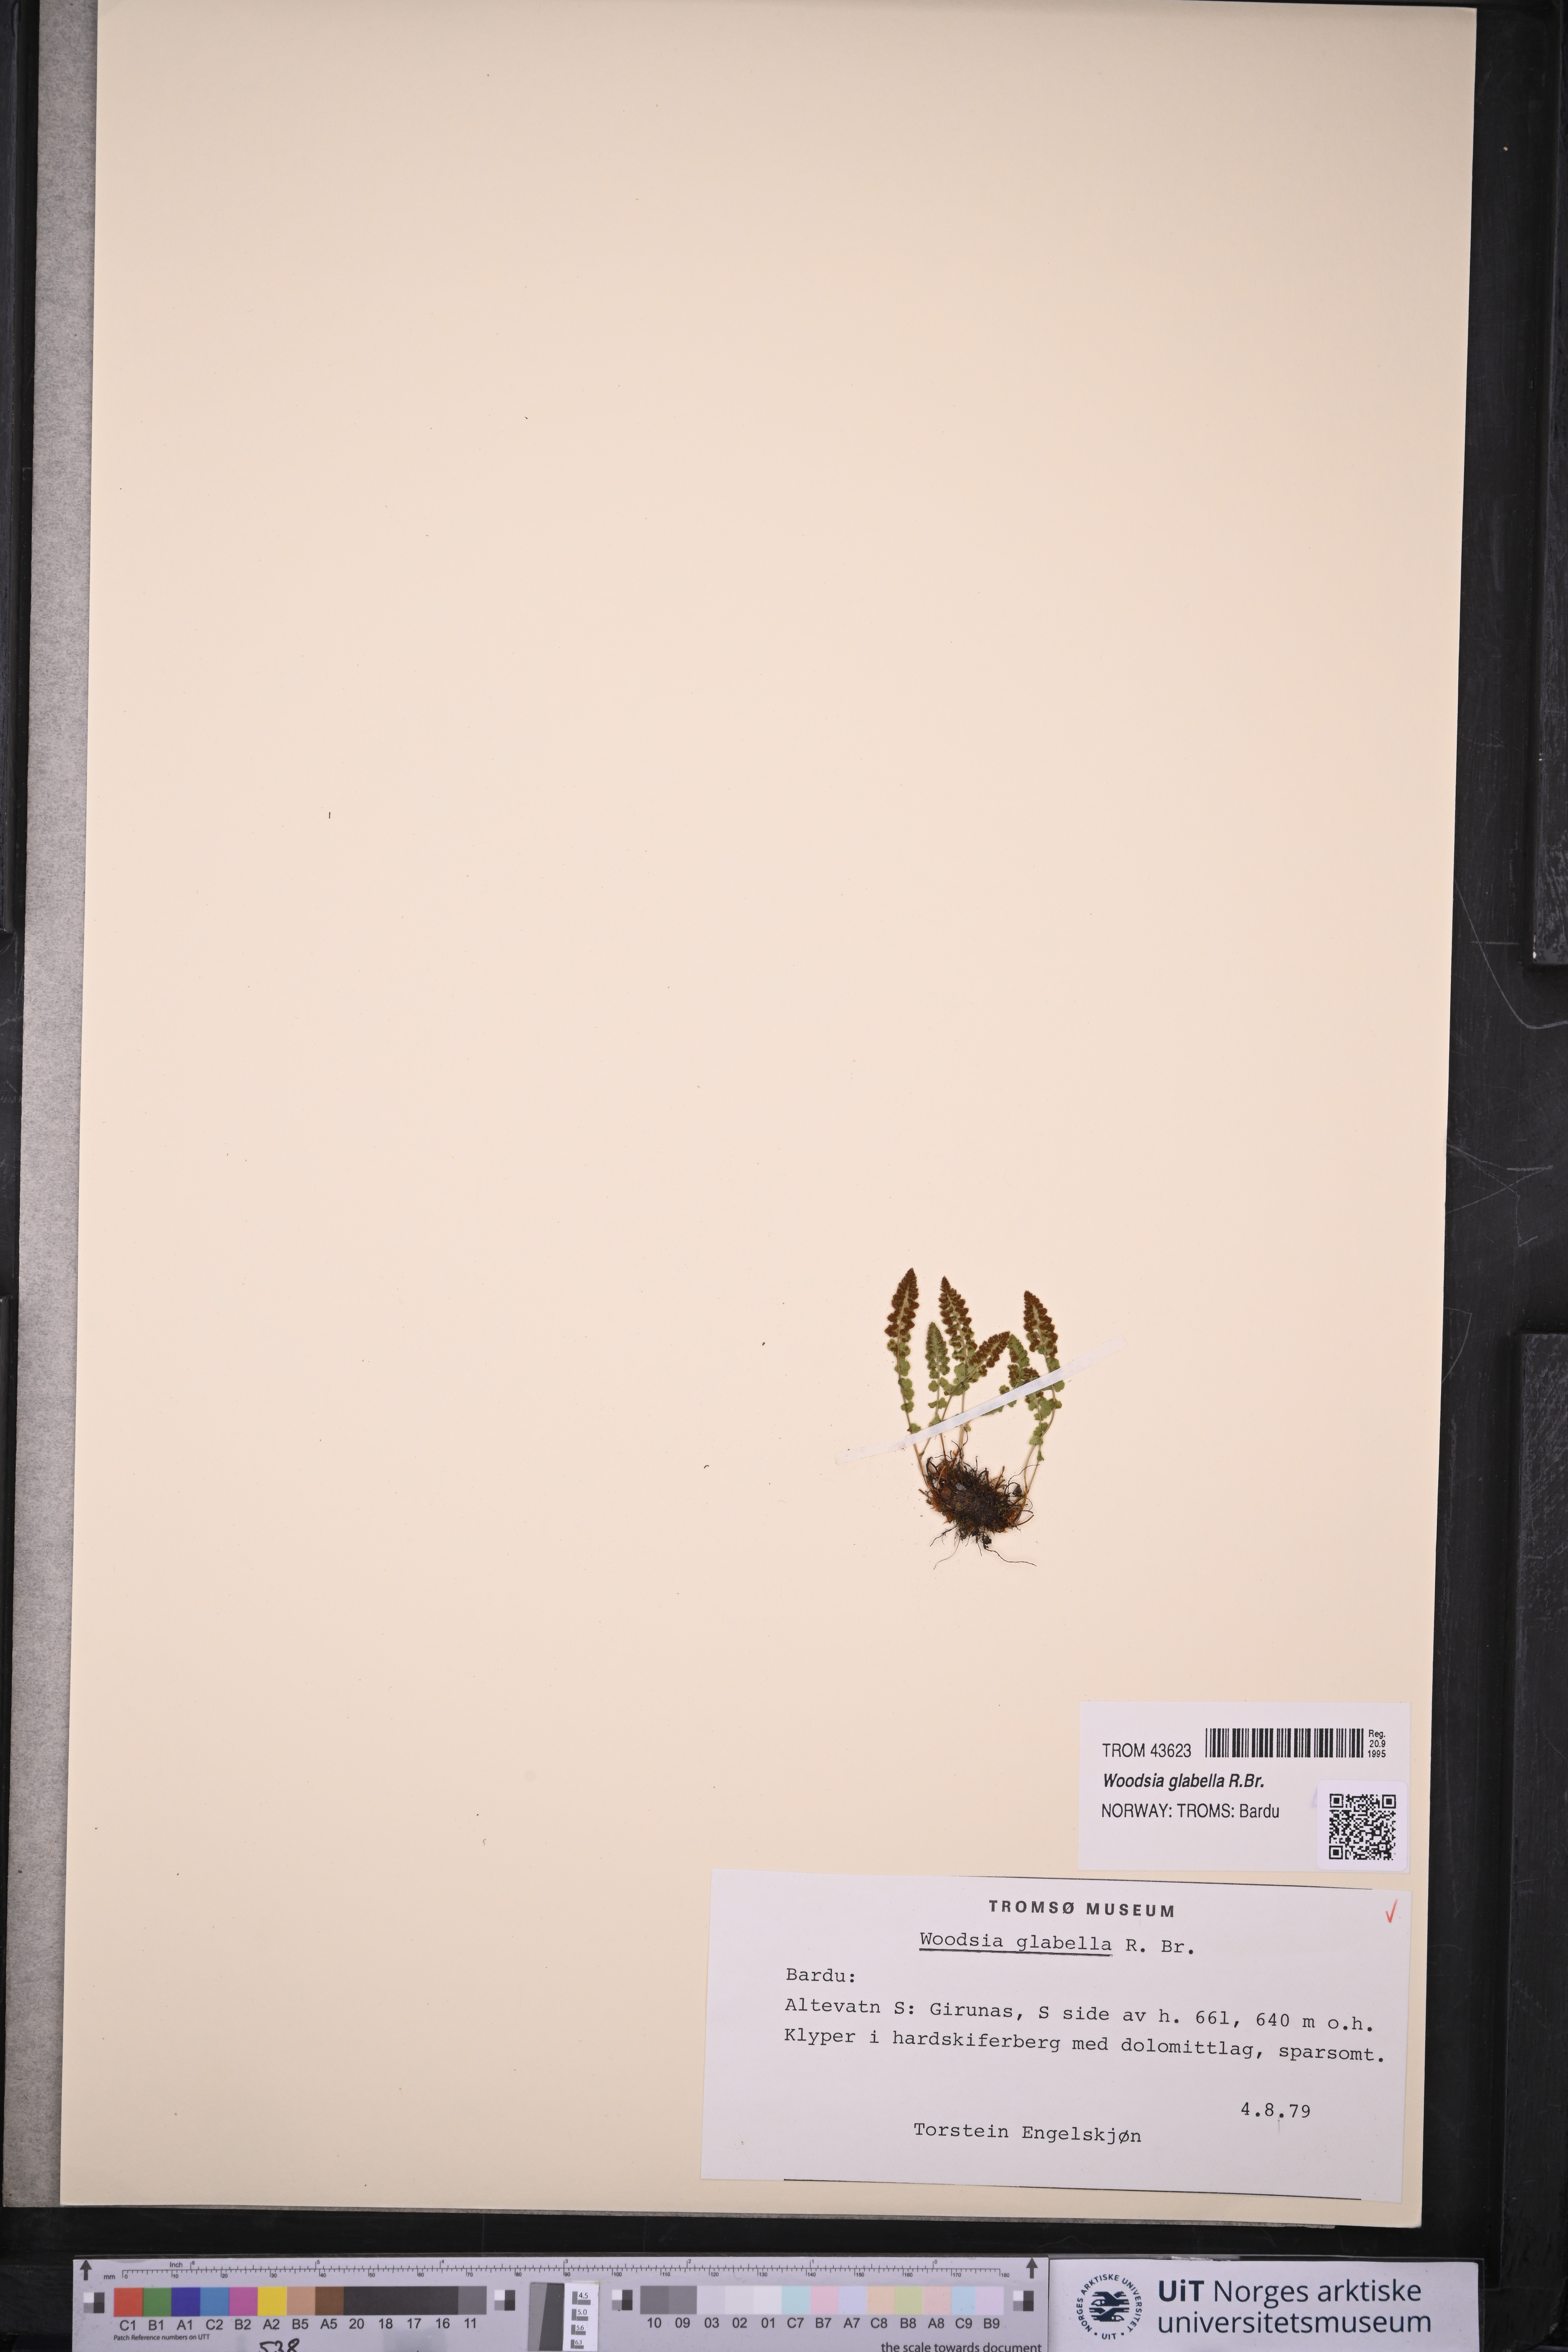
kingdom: Plantae
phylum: Tracheophyta
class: Polypodiopsida
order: Polypodiales
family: Woodsiaceae
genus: Woodsia
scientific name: Woodsia glabella
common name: Smooth woodsia
